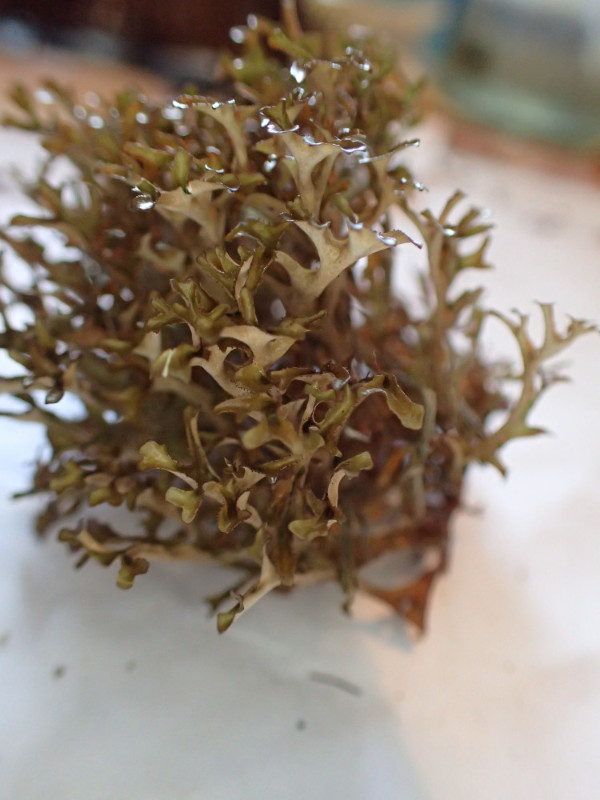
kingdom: Fungi
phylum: Ascomycota
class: Lecanoromycetes
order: Lecanorales
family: Parmeliaceae
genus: Cetraria
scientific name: Cetraria islandica
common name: islandsk kruslav
